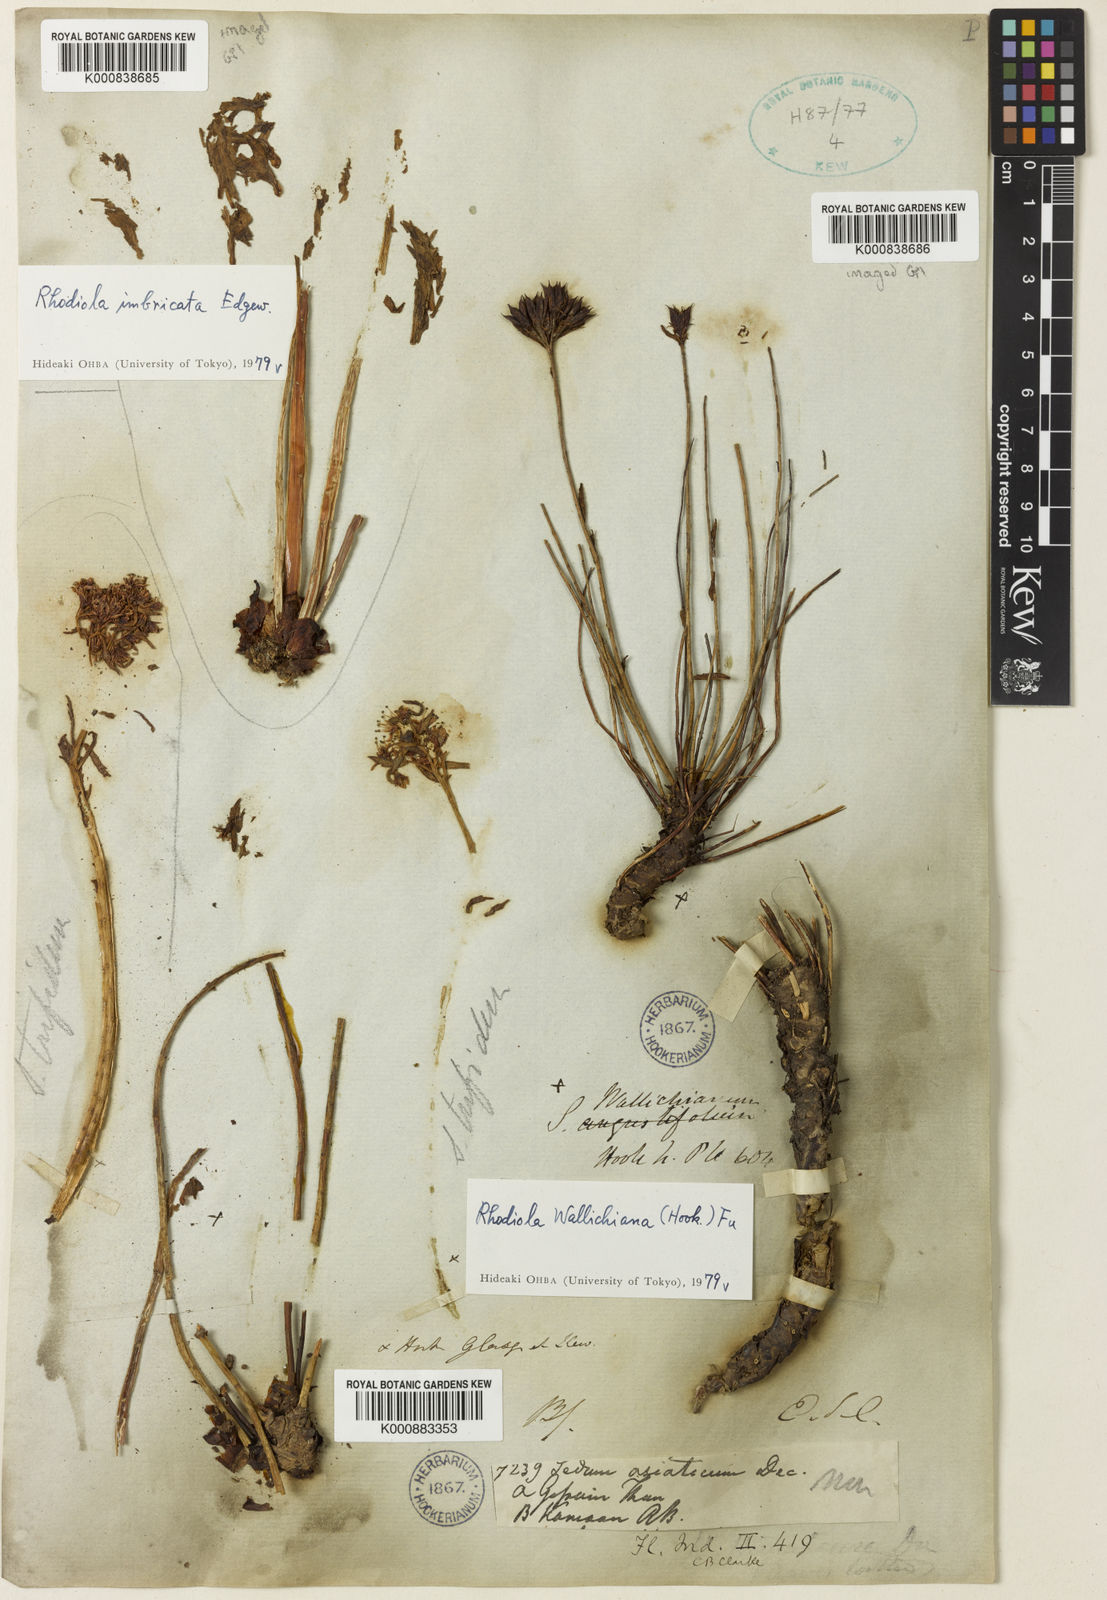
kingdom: Plantae
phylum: Tracheophyta
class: Magnoliopsida
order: Saxifragales
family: Crassulaceae
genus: Rhodiola
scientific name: Rhodiola wallichiana
